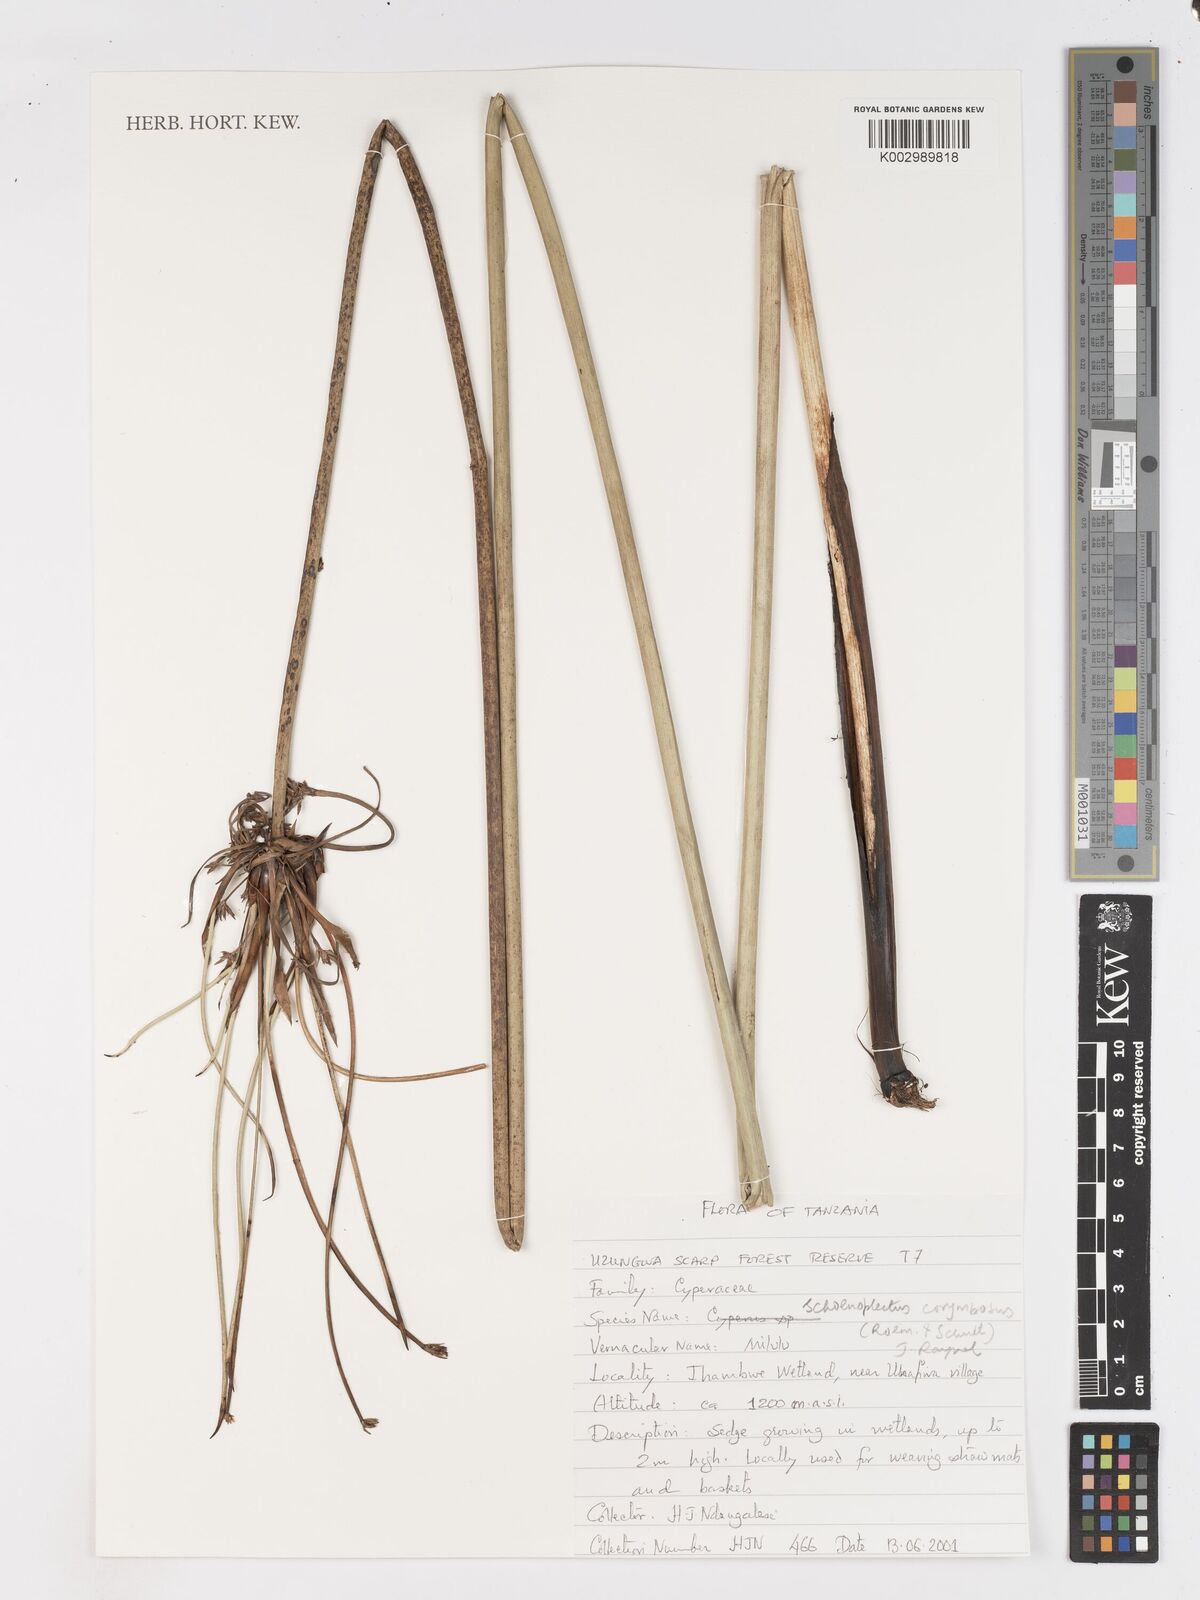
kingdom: Plantae
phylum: Tracheophyta
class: Liliopsida
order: Poales
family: Cyperaceae
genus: Schoenoplectiella
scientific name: Schoenoplectiella brachyceras
